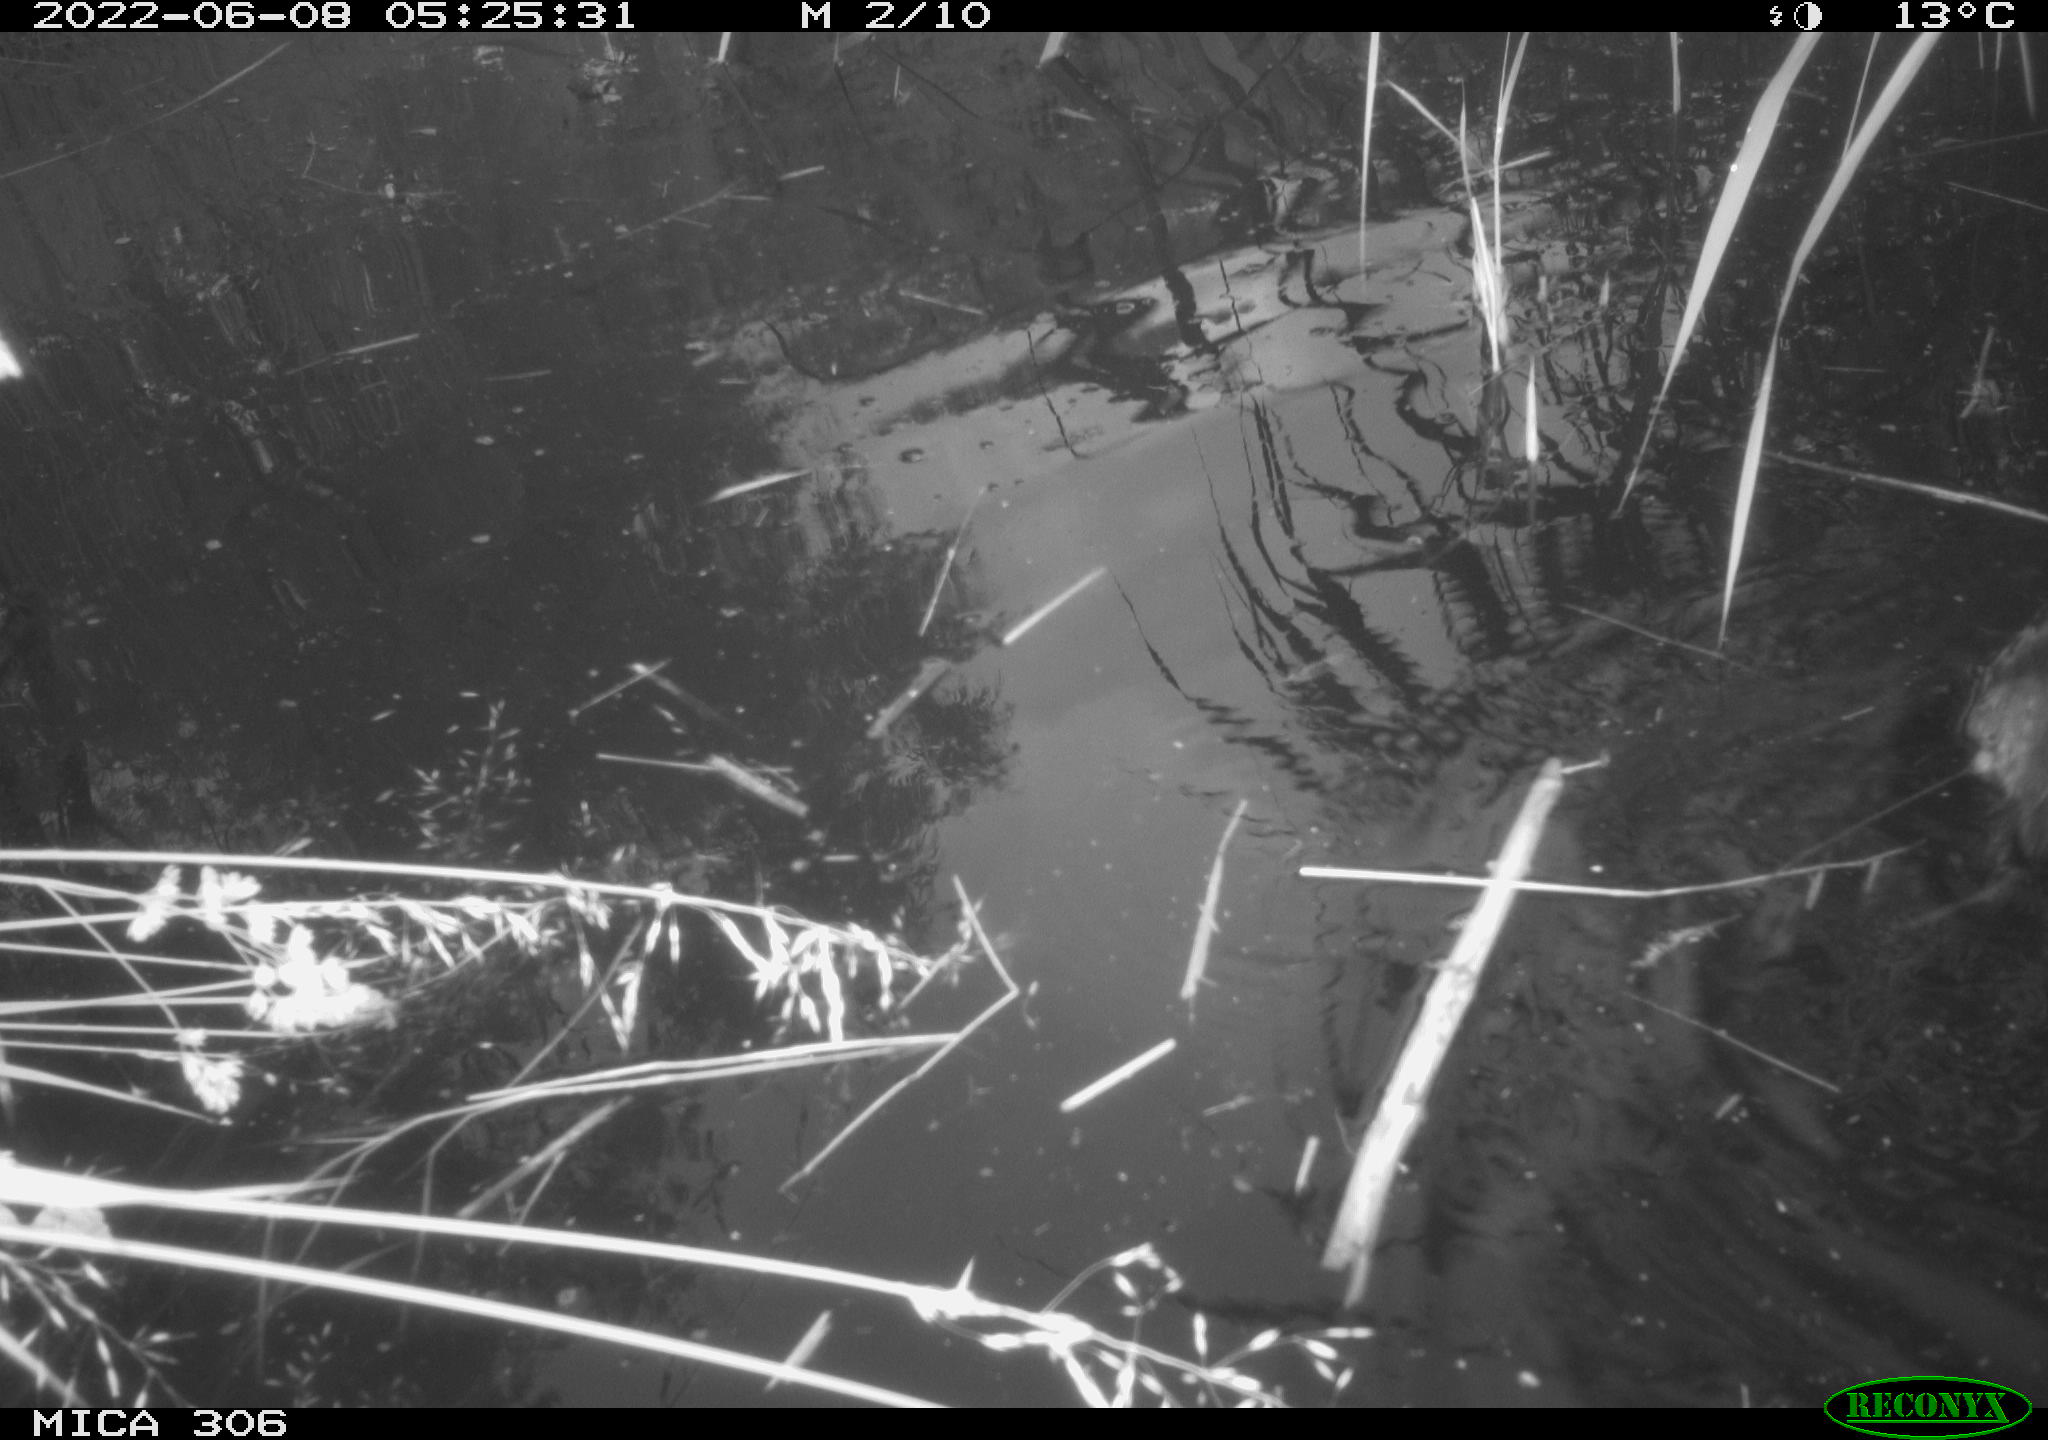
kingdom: Animalia
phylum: Chordata
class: Aves
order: Anseriformes
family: Anatidae
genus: Anas
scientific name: Anas platyrhynchos
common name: Mallard
